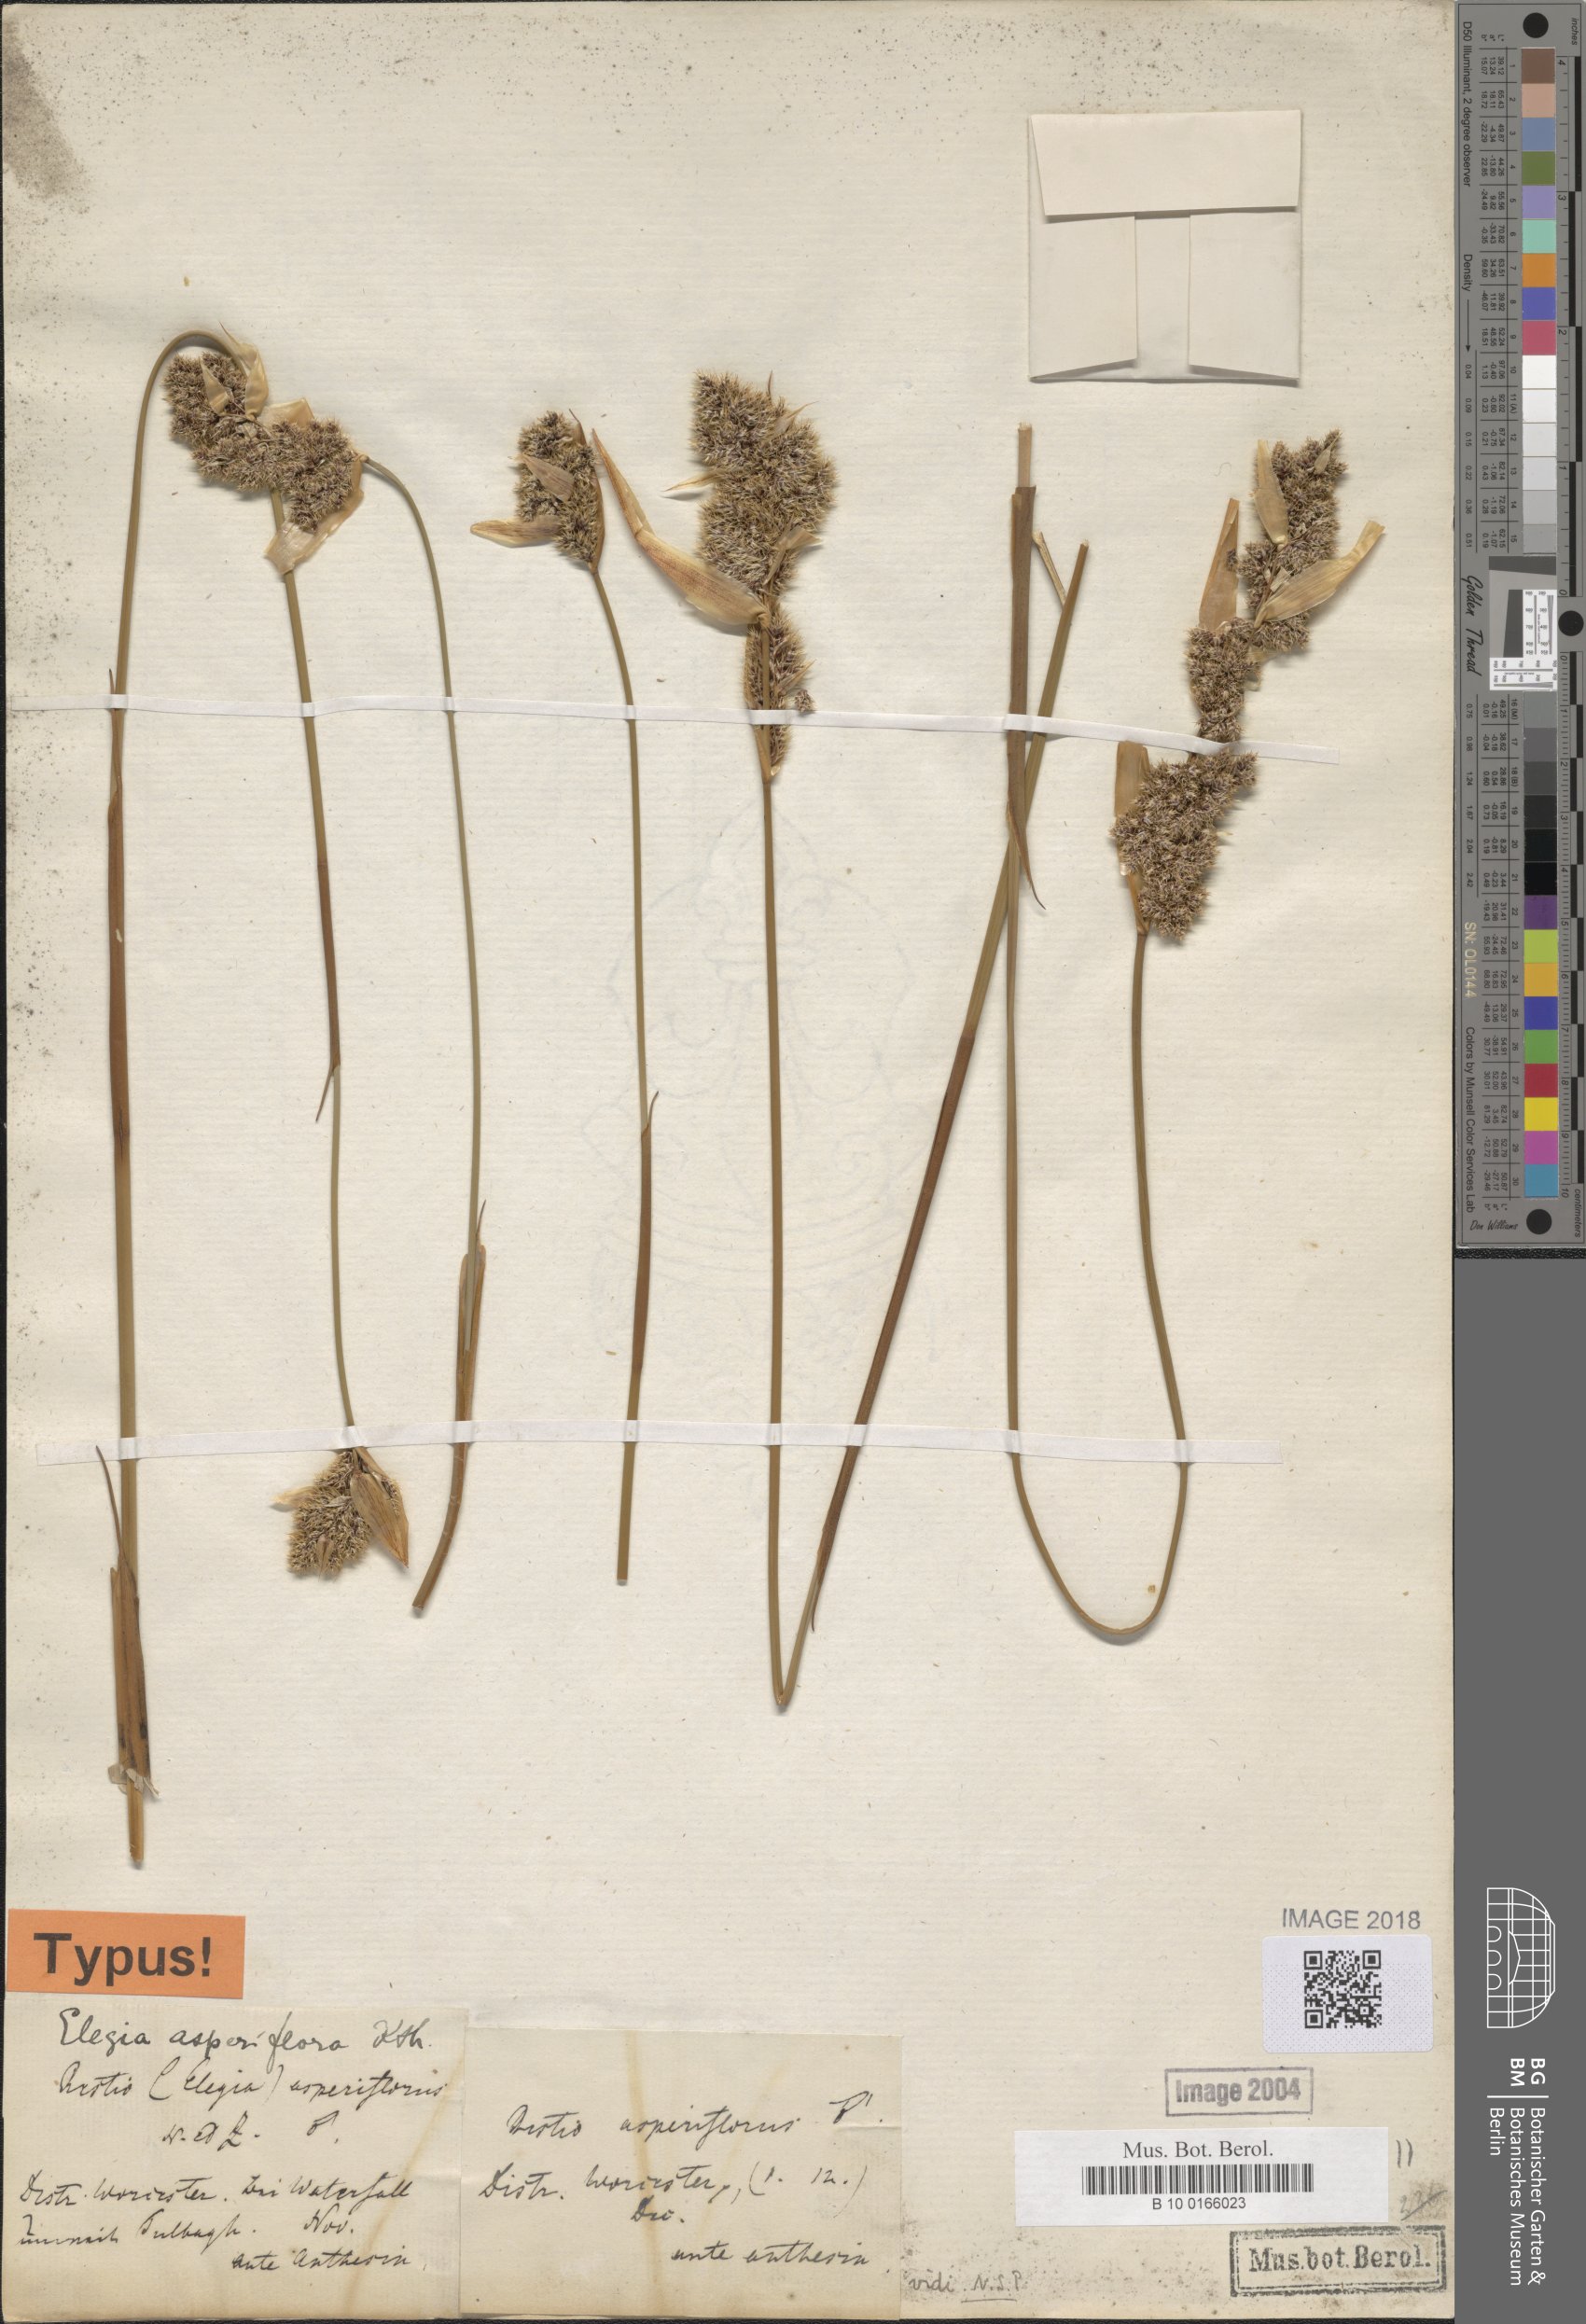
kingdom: Plantae
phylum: Tracheophyta
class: Liliopsida
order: Poales
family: Restionaceae
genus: Elegia
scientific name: Elegia asperiflora
